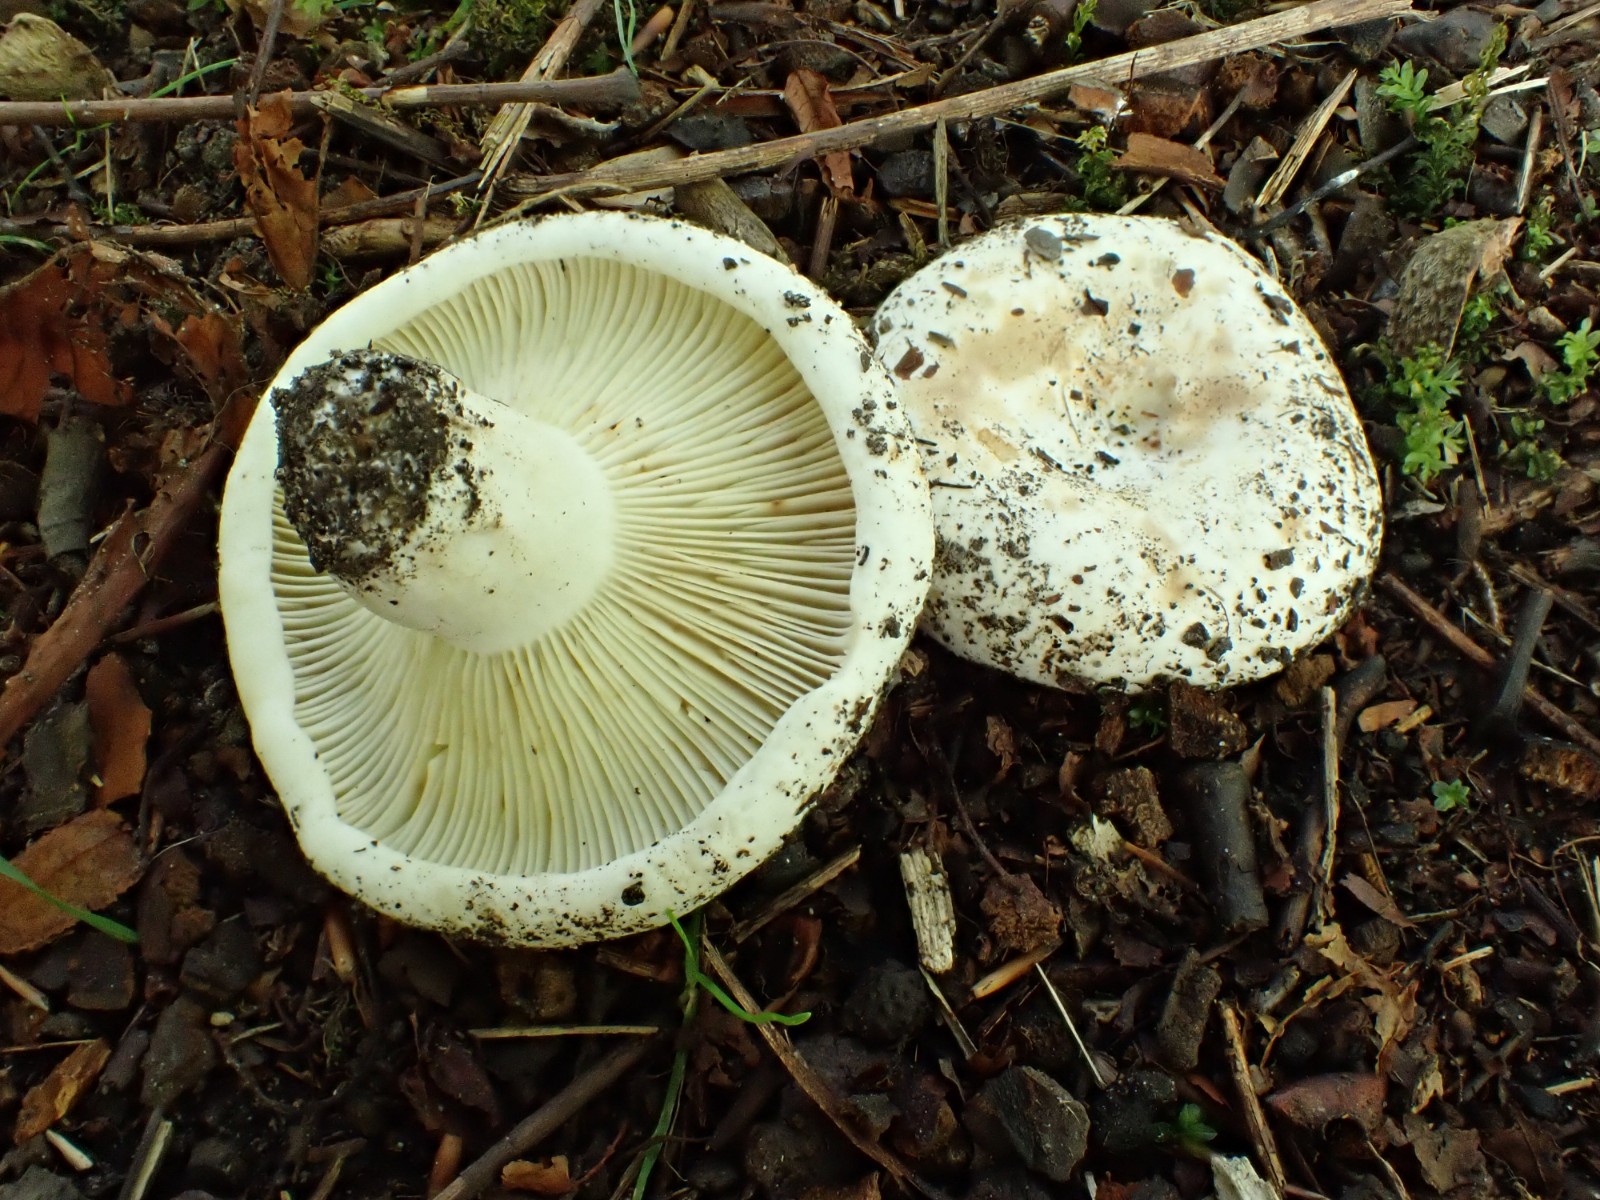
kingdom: Fungi
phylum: Basidiomycota
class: Agaricomycetes
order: Russulales
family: Russulaceae
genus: Russula
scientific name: Russula chloroides
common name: grønhalset tragt-skørhat
